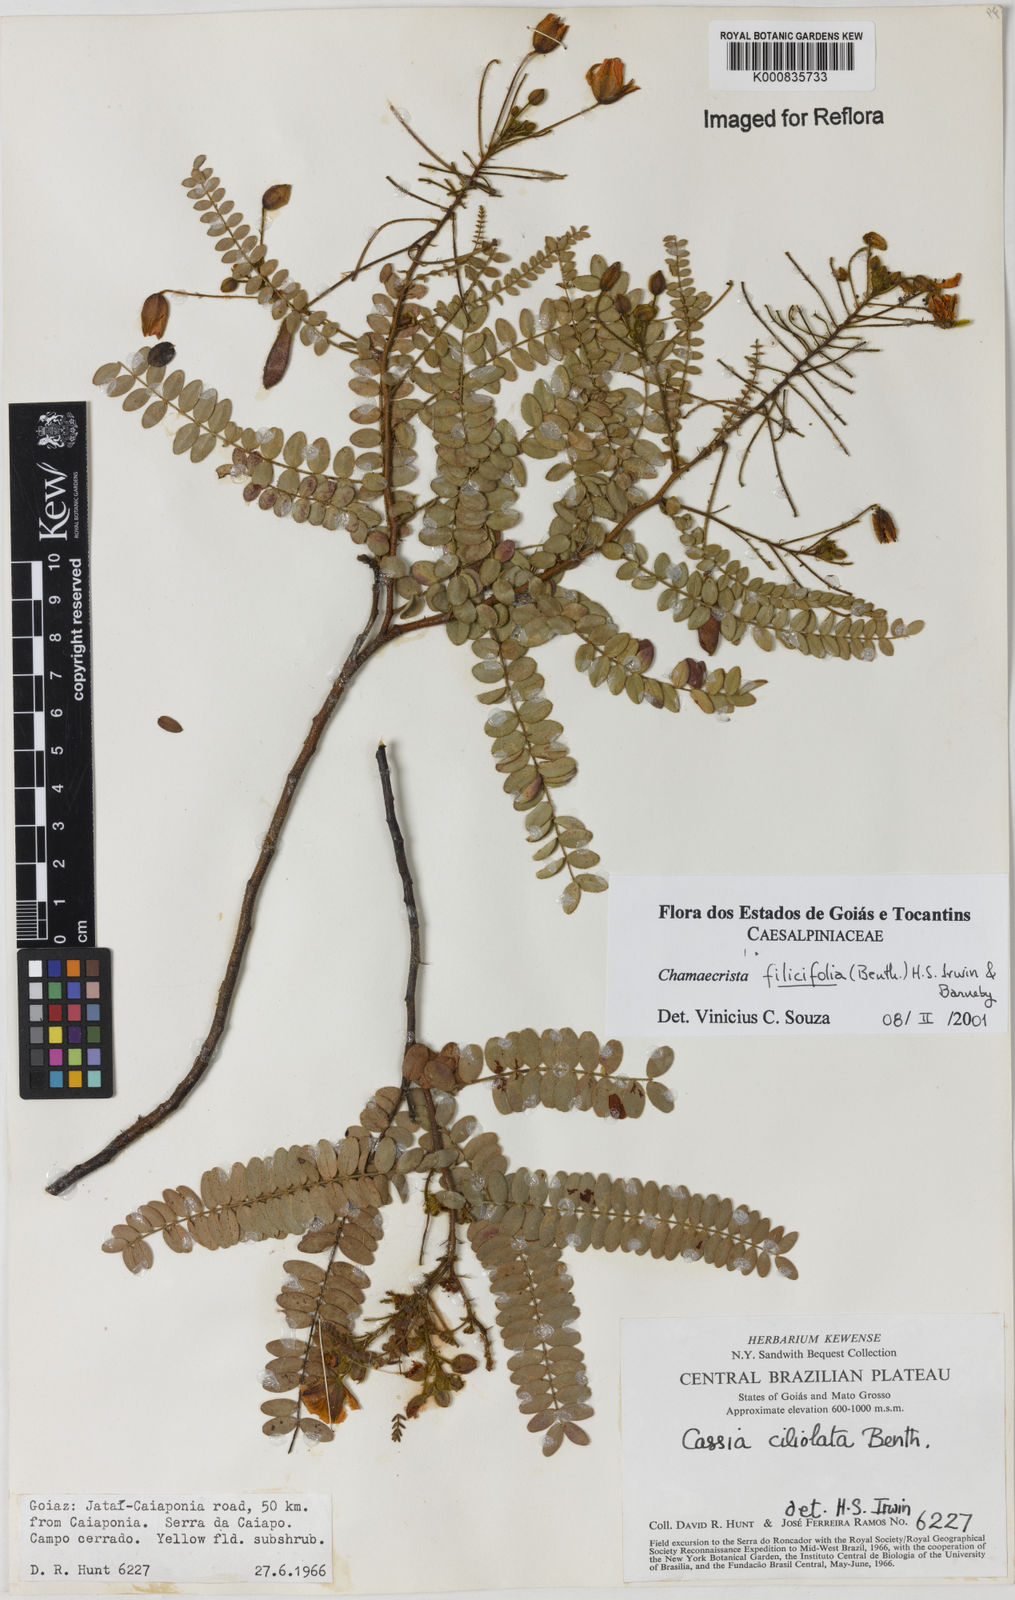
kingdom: Plantae
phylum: Tracheophyta
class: Magnoliopsida
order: Fabales
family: Fabaceae
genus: Chamaecrista
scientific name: Chamaecrista filicifolia
